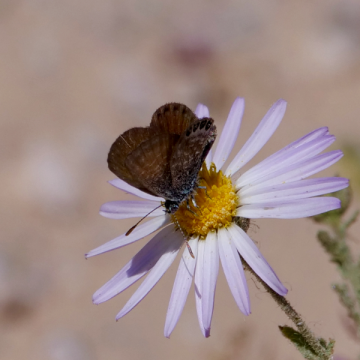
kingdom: Animalia
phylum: Arthropoda
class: Insecta
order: Lepidoptera
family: Lycaenidae
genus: Brephidium
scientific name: Brephidium exilis
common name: Western Pygmy-Blue
